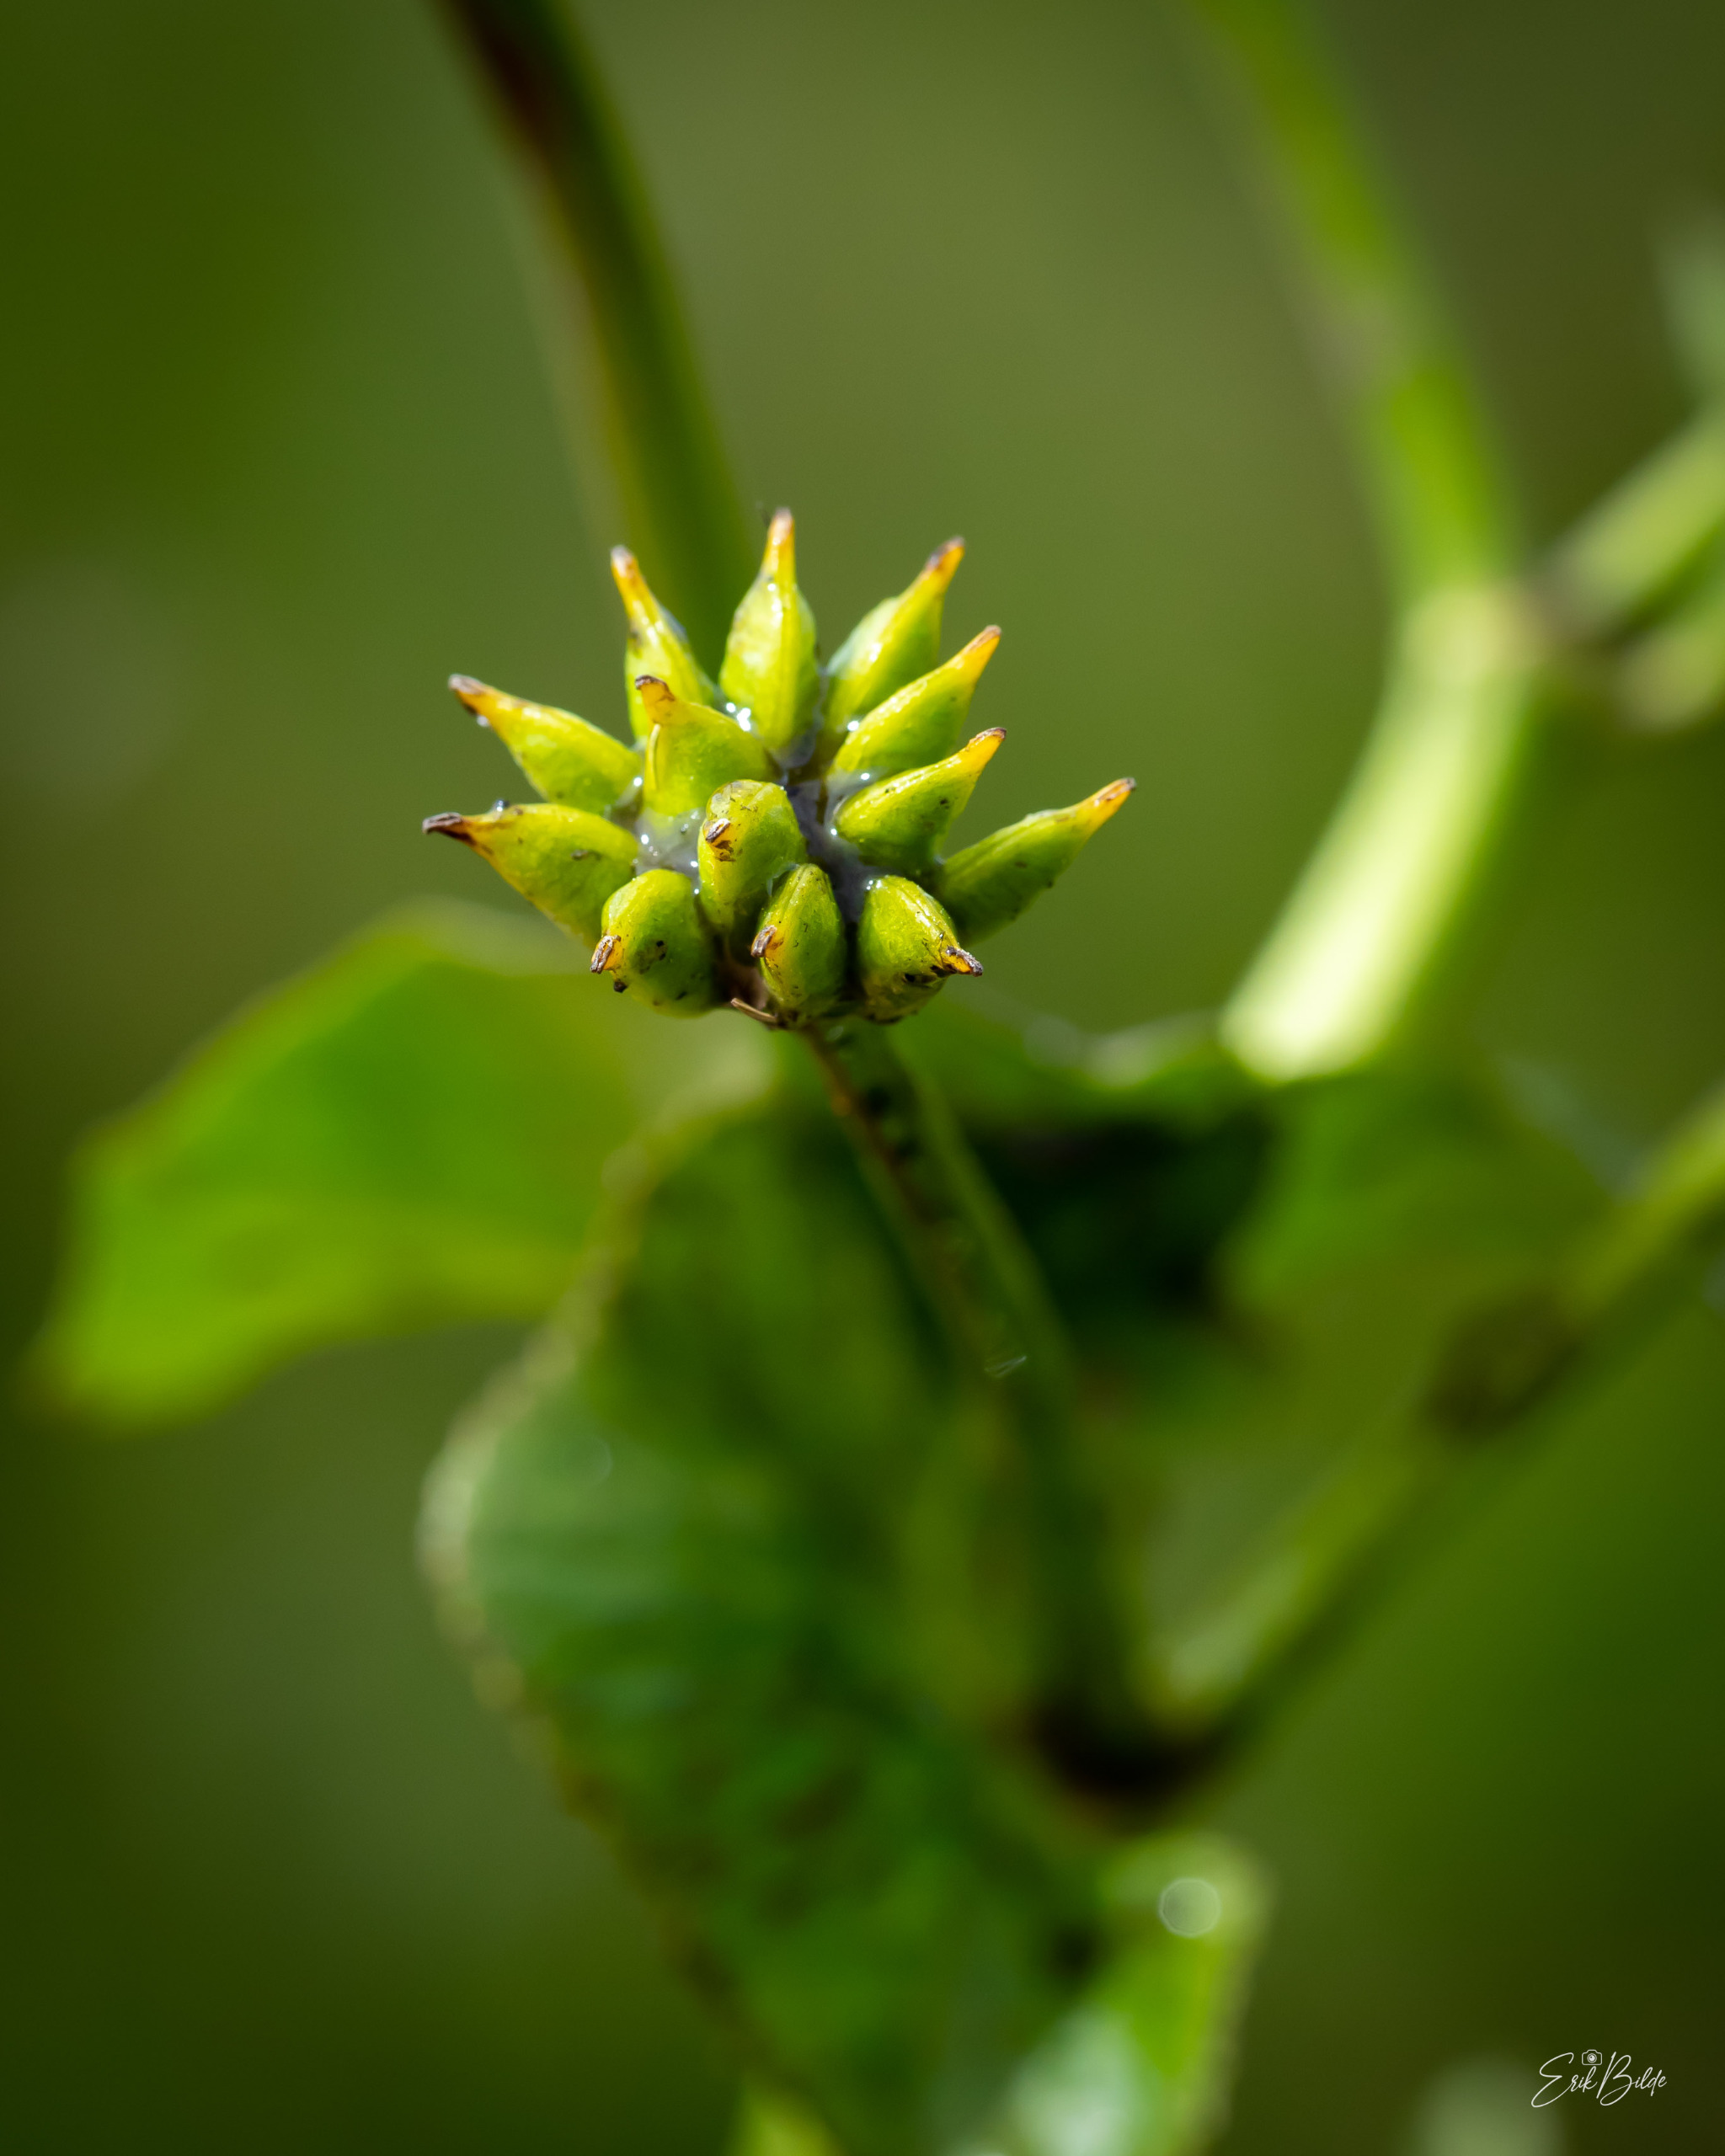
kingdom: Plantae
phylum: Tracheophyta
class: Magnoliopsida
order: Ranunculales
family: Ranunculaceae
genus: Caltha
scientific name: Caltha palustris
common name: Eng-kabbeleje
